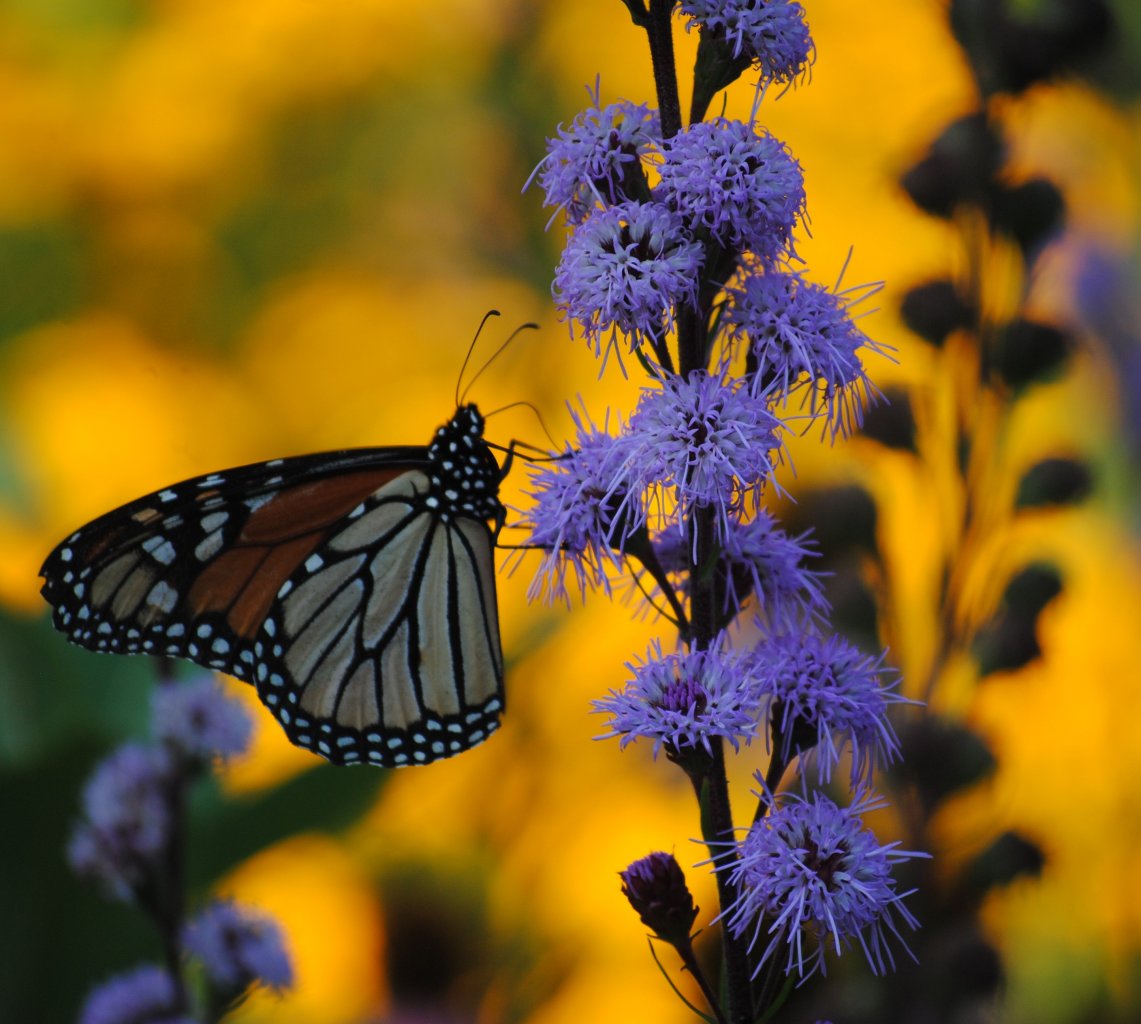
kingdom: Animalia
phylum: Arthropoda
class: Insecta
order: Lepidoptera
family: Nymphalidae
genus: Danaus
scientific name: Danaus plexippus
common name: Monarch
